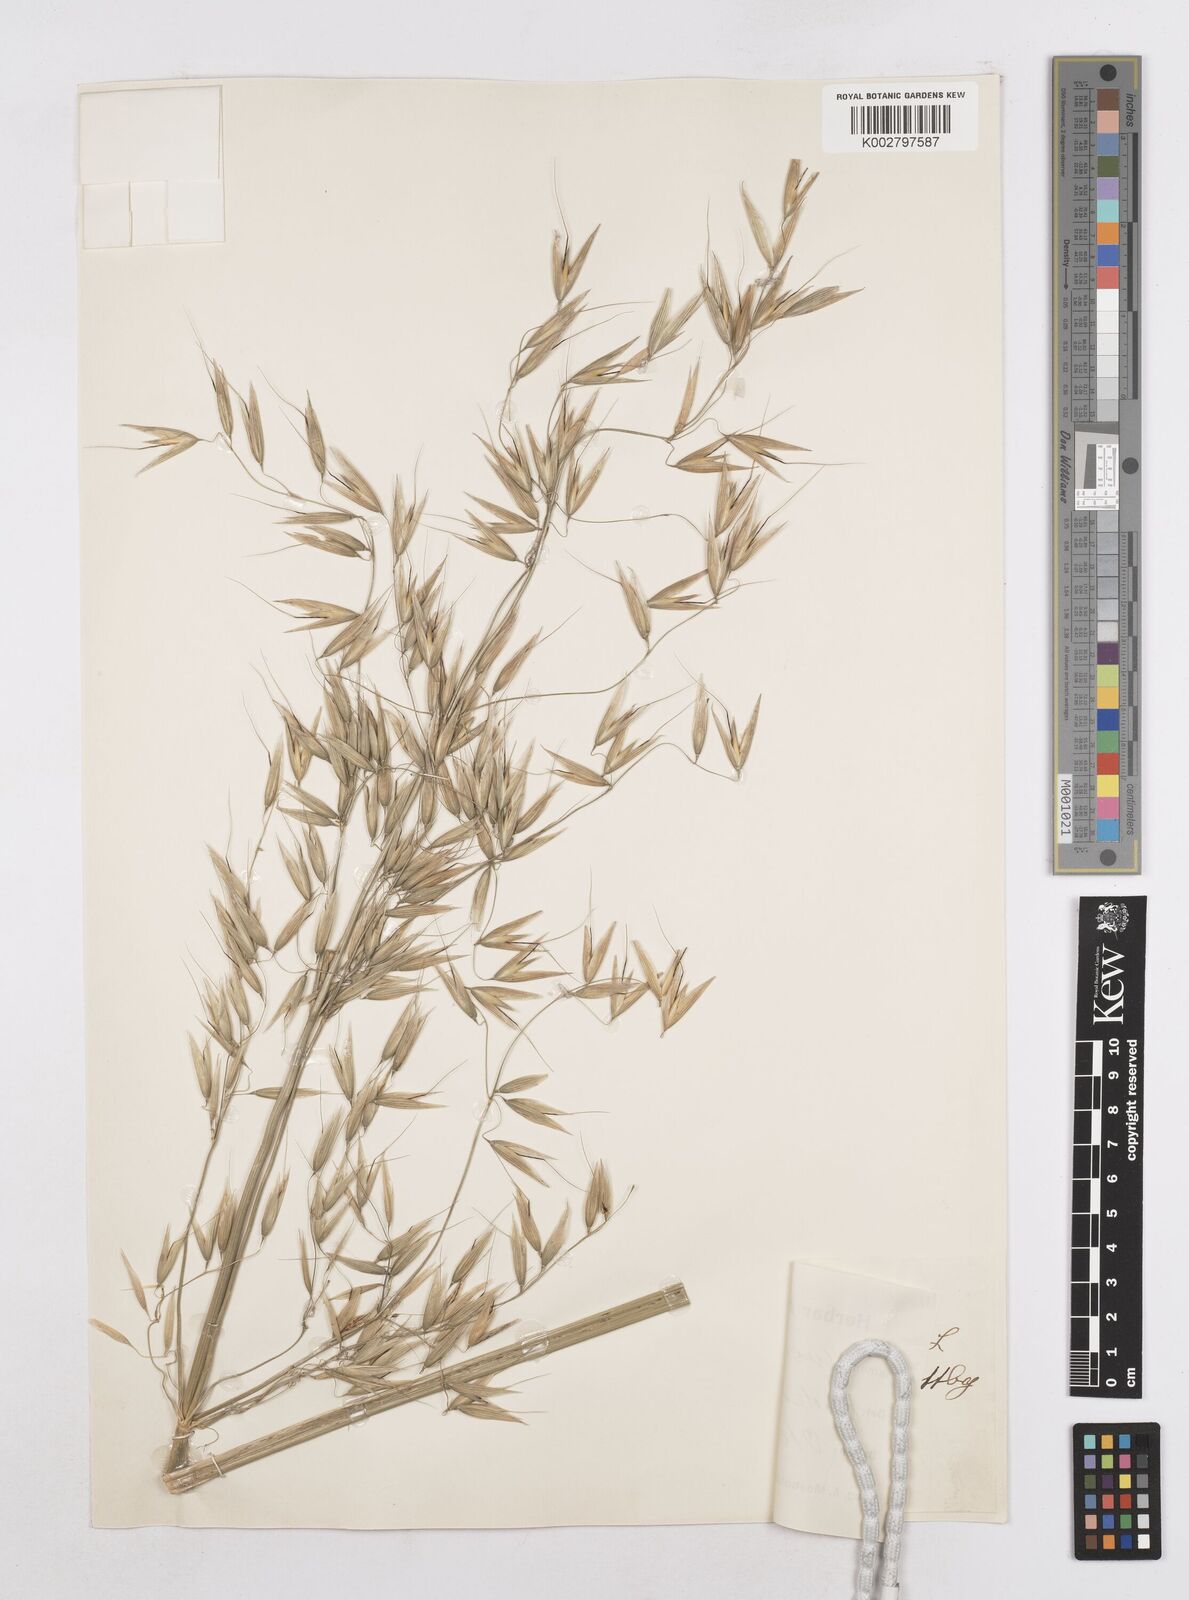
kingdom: Plantae
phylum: Tracheophyta
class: Liliopsida
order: Poales
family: Poaceae
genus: Avena
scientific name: Avena sativa
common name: Oat
